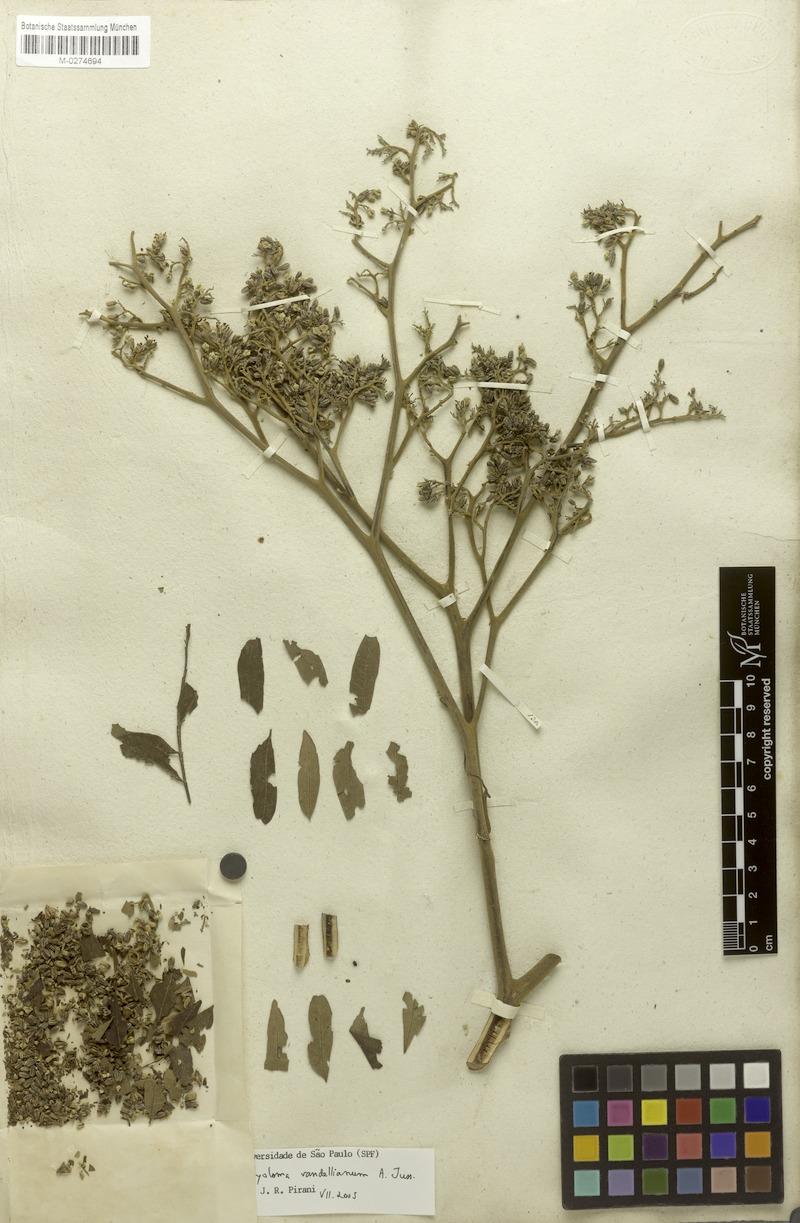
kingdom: Plantae
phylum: Tracheophyta
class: Magnoliopsida
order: Sapindales
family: Rutaceae
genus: Dictyoloma
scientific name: Dictyoloma vandellianum
